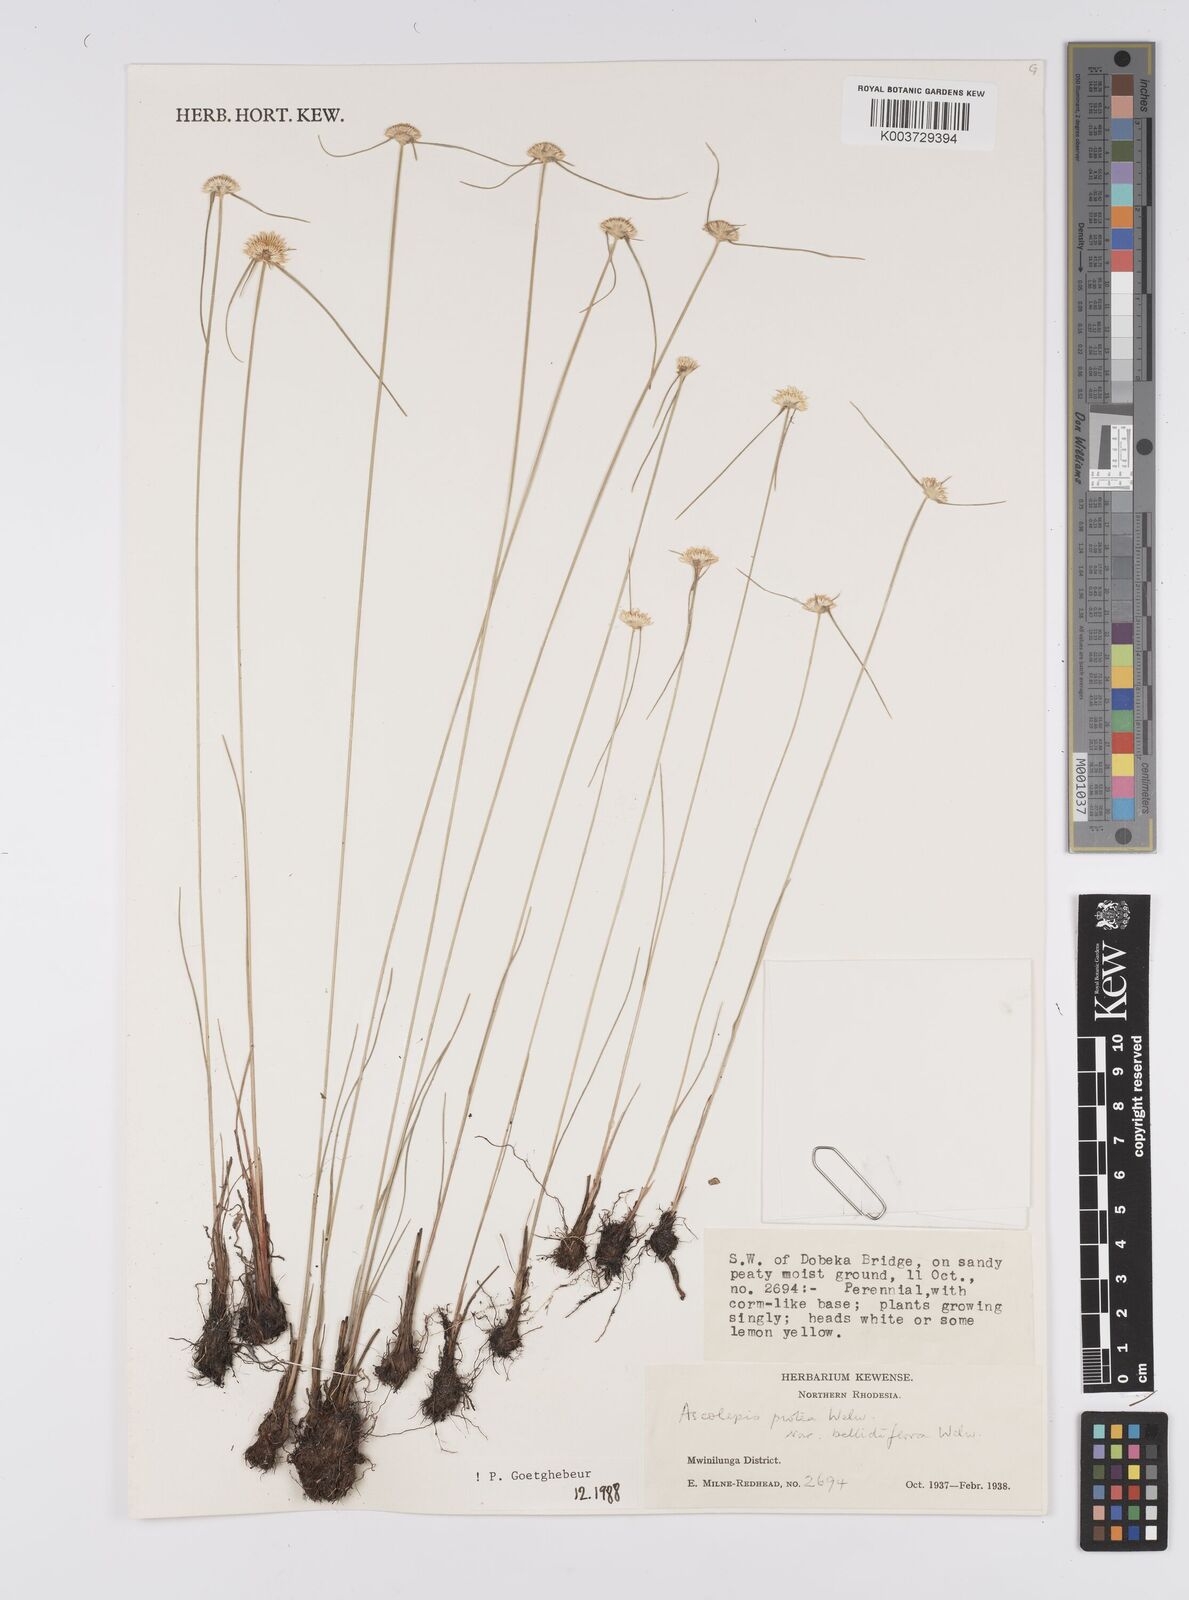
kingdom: Plantae
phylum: Tracheophyta
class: Liliopsida
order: Poales
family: Cyperaceae
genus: Cyperus
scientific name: Cyperus proteus
